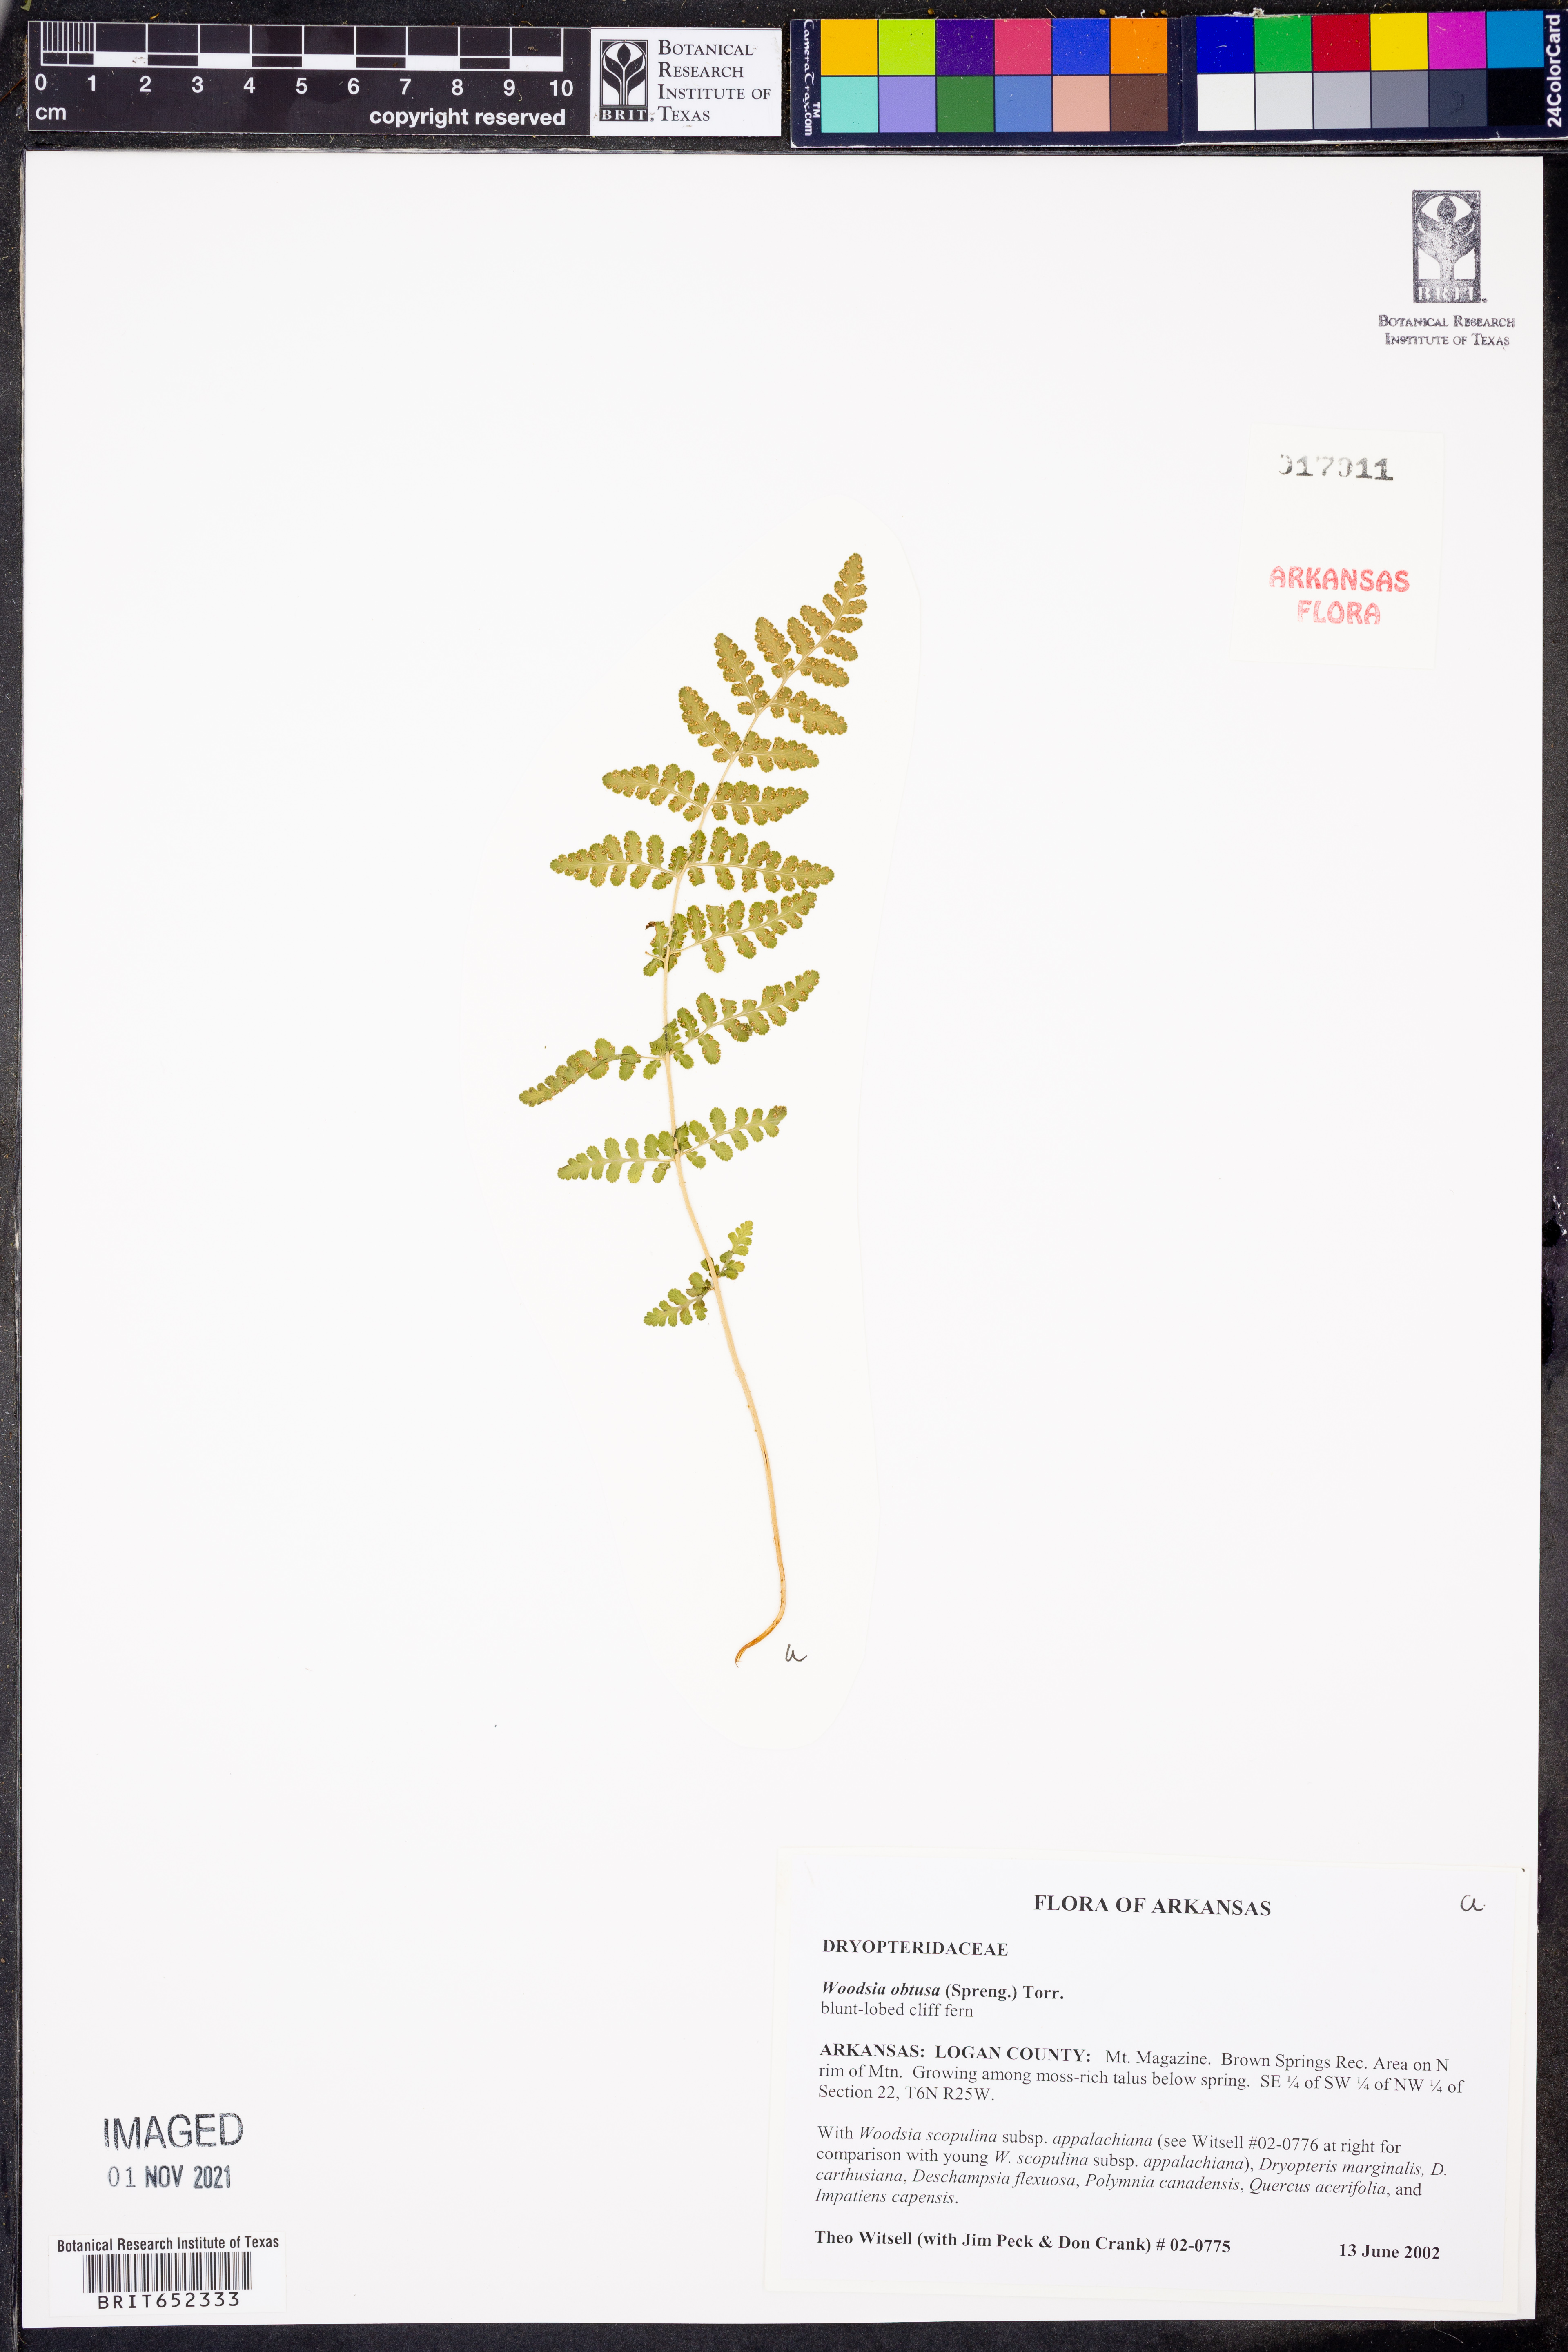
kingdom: Plantae
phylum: Tracheophyta
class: Polypodiopsida
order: Polypodiales
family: Woodsiaceae
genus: Physematium
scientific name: Physematium obtusum
